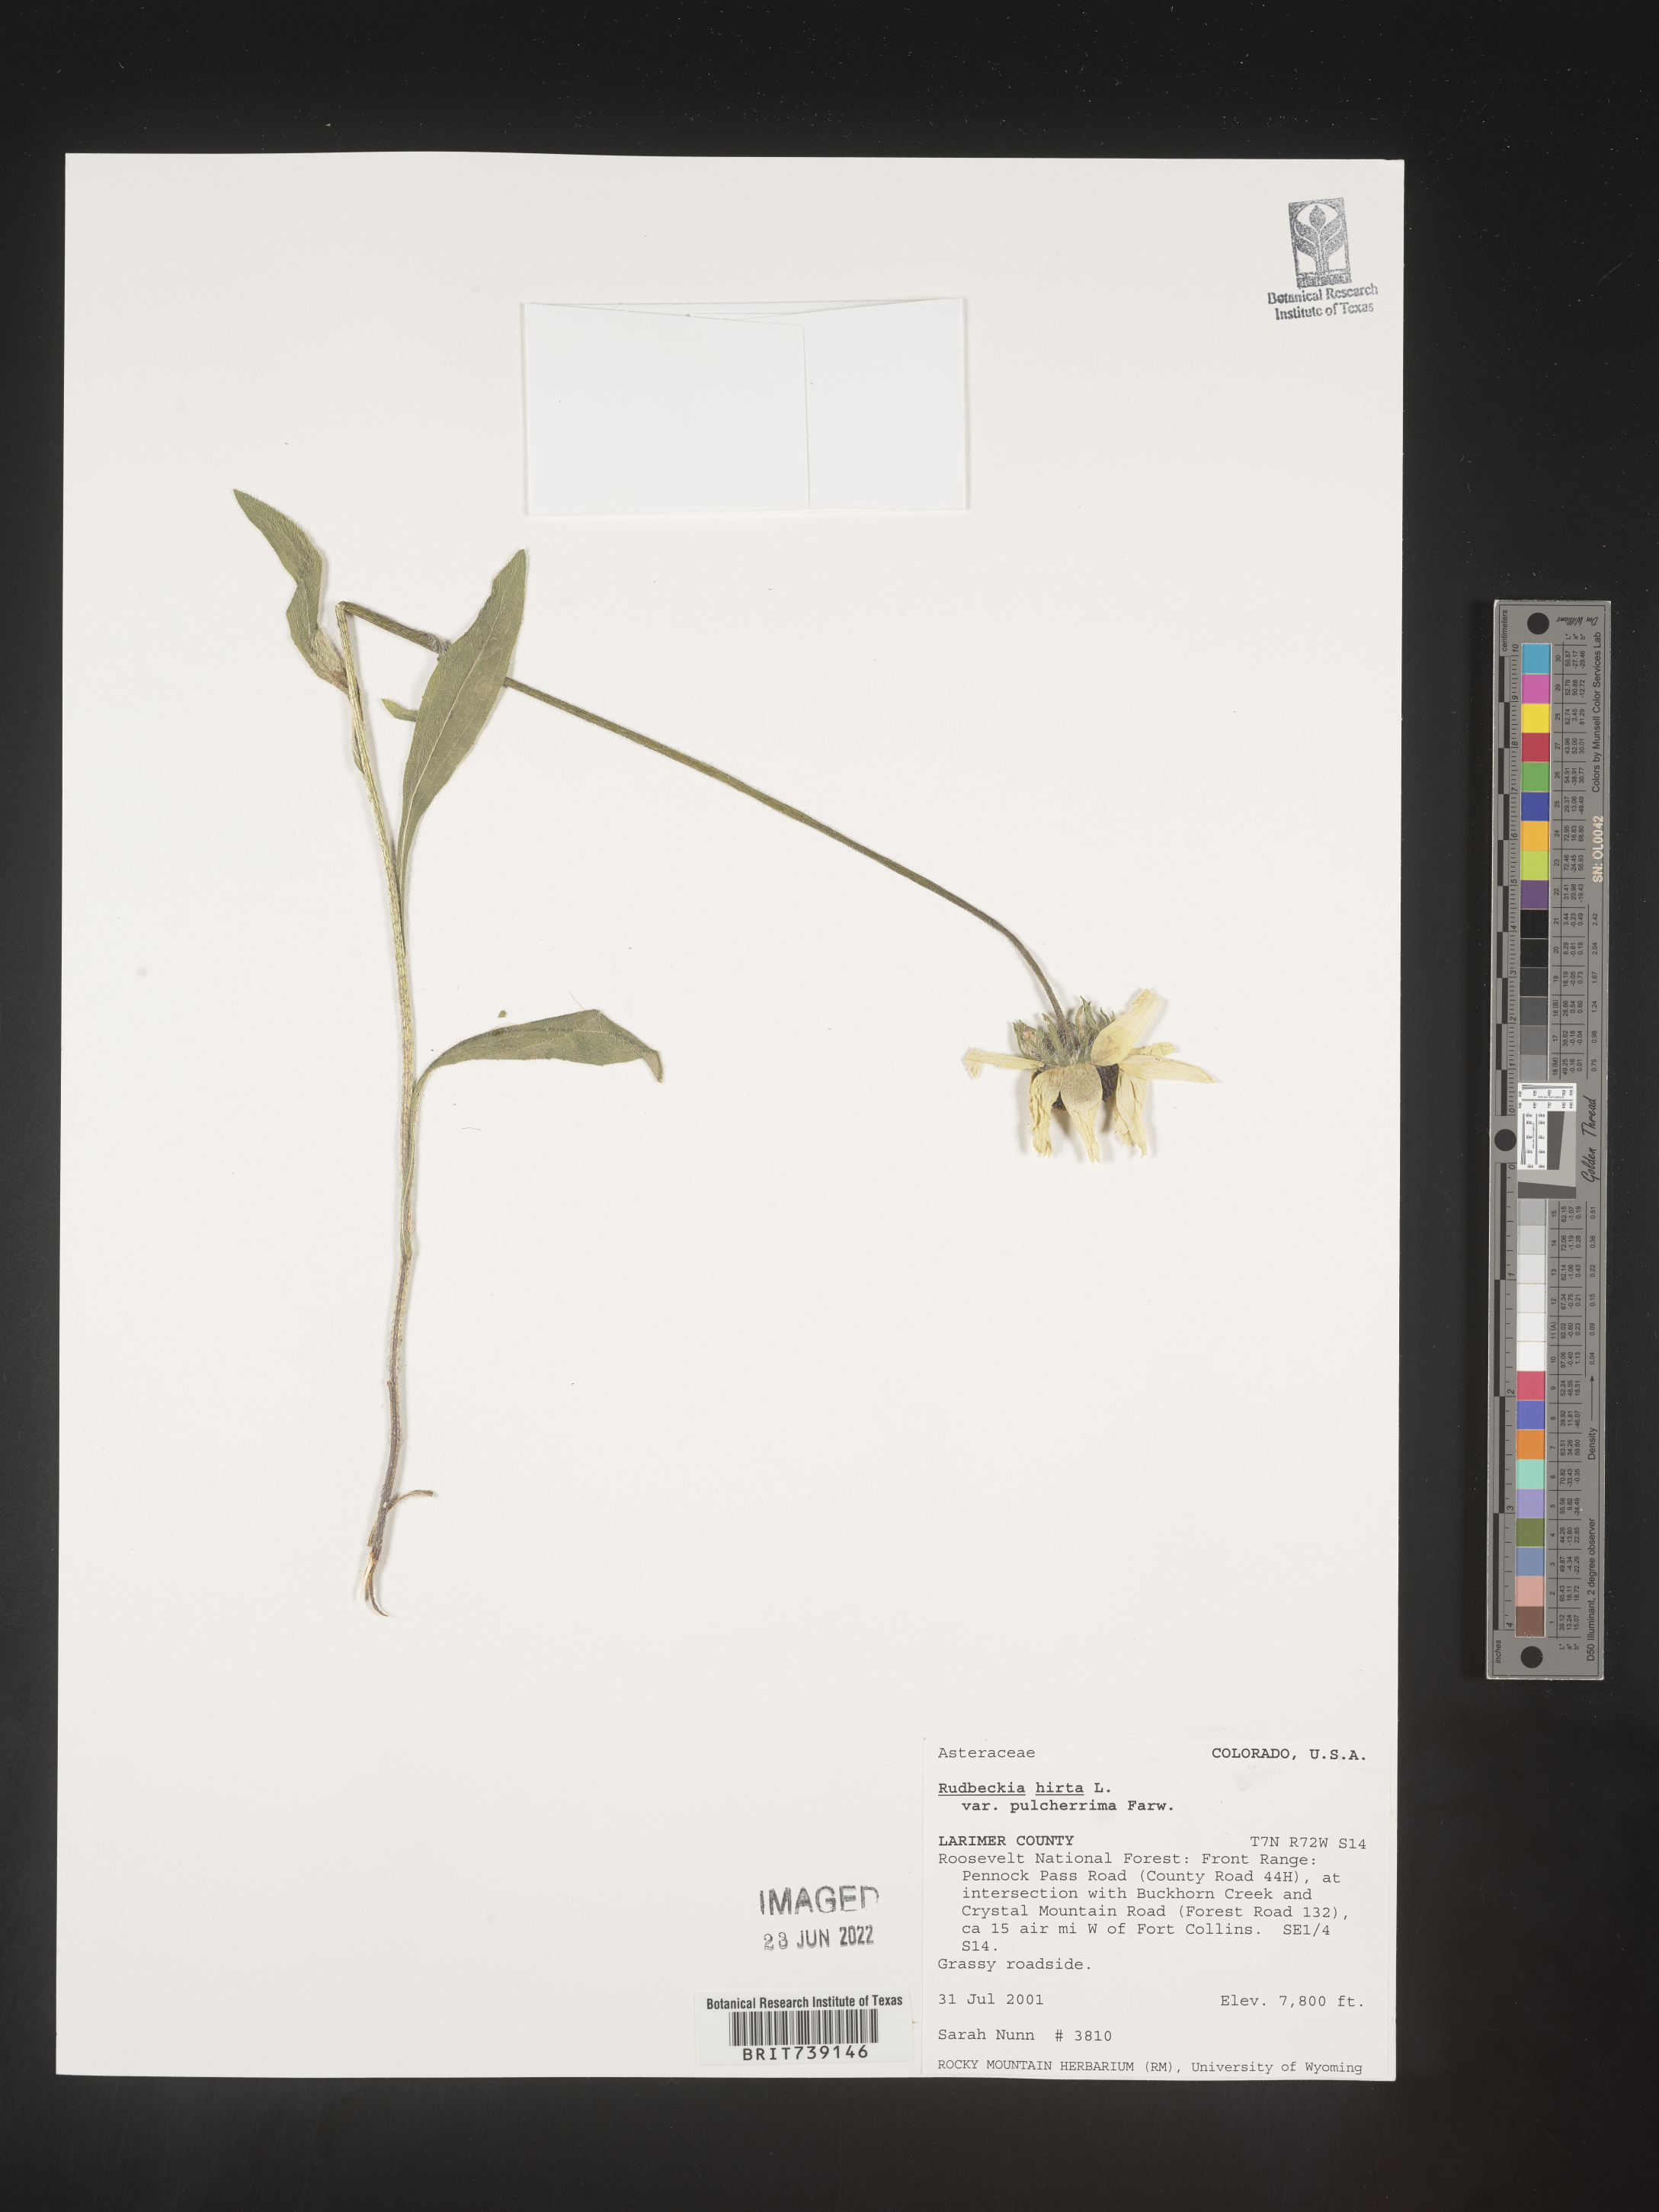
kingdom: Plantae
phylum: Tracheophyta
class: Magnoliopsida
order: Asterales
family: Asteraceae
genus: Rudbeckia
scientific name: Rudbeckia hirta
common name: Black-eyed-susan
